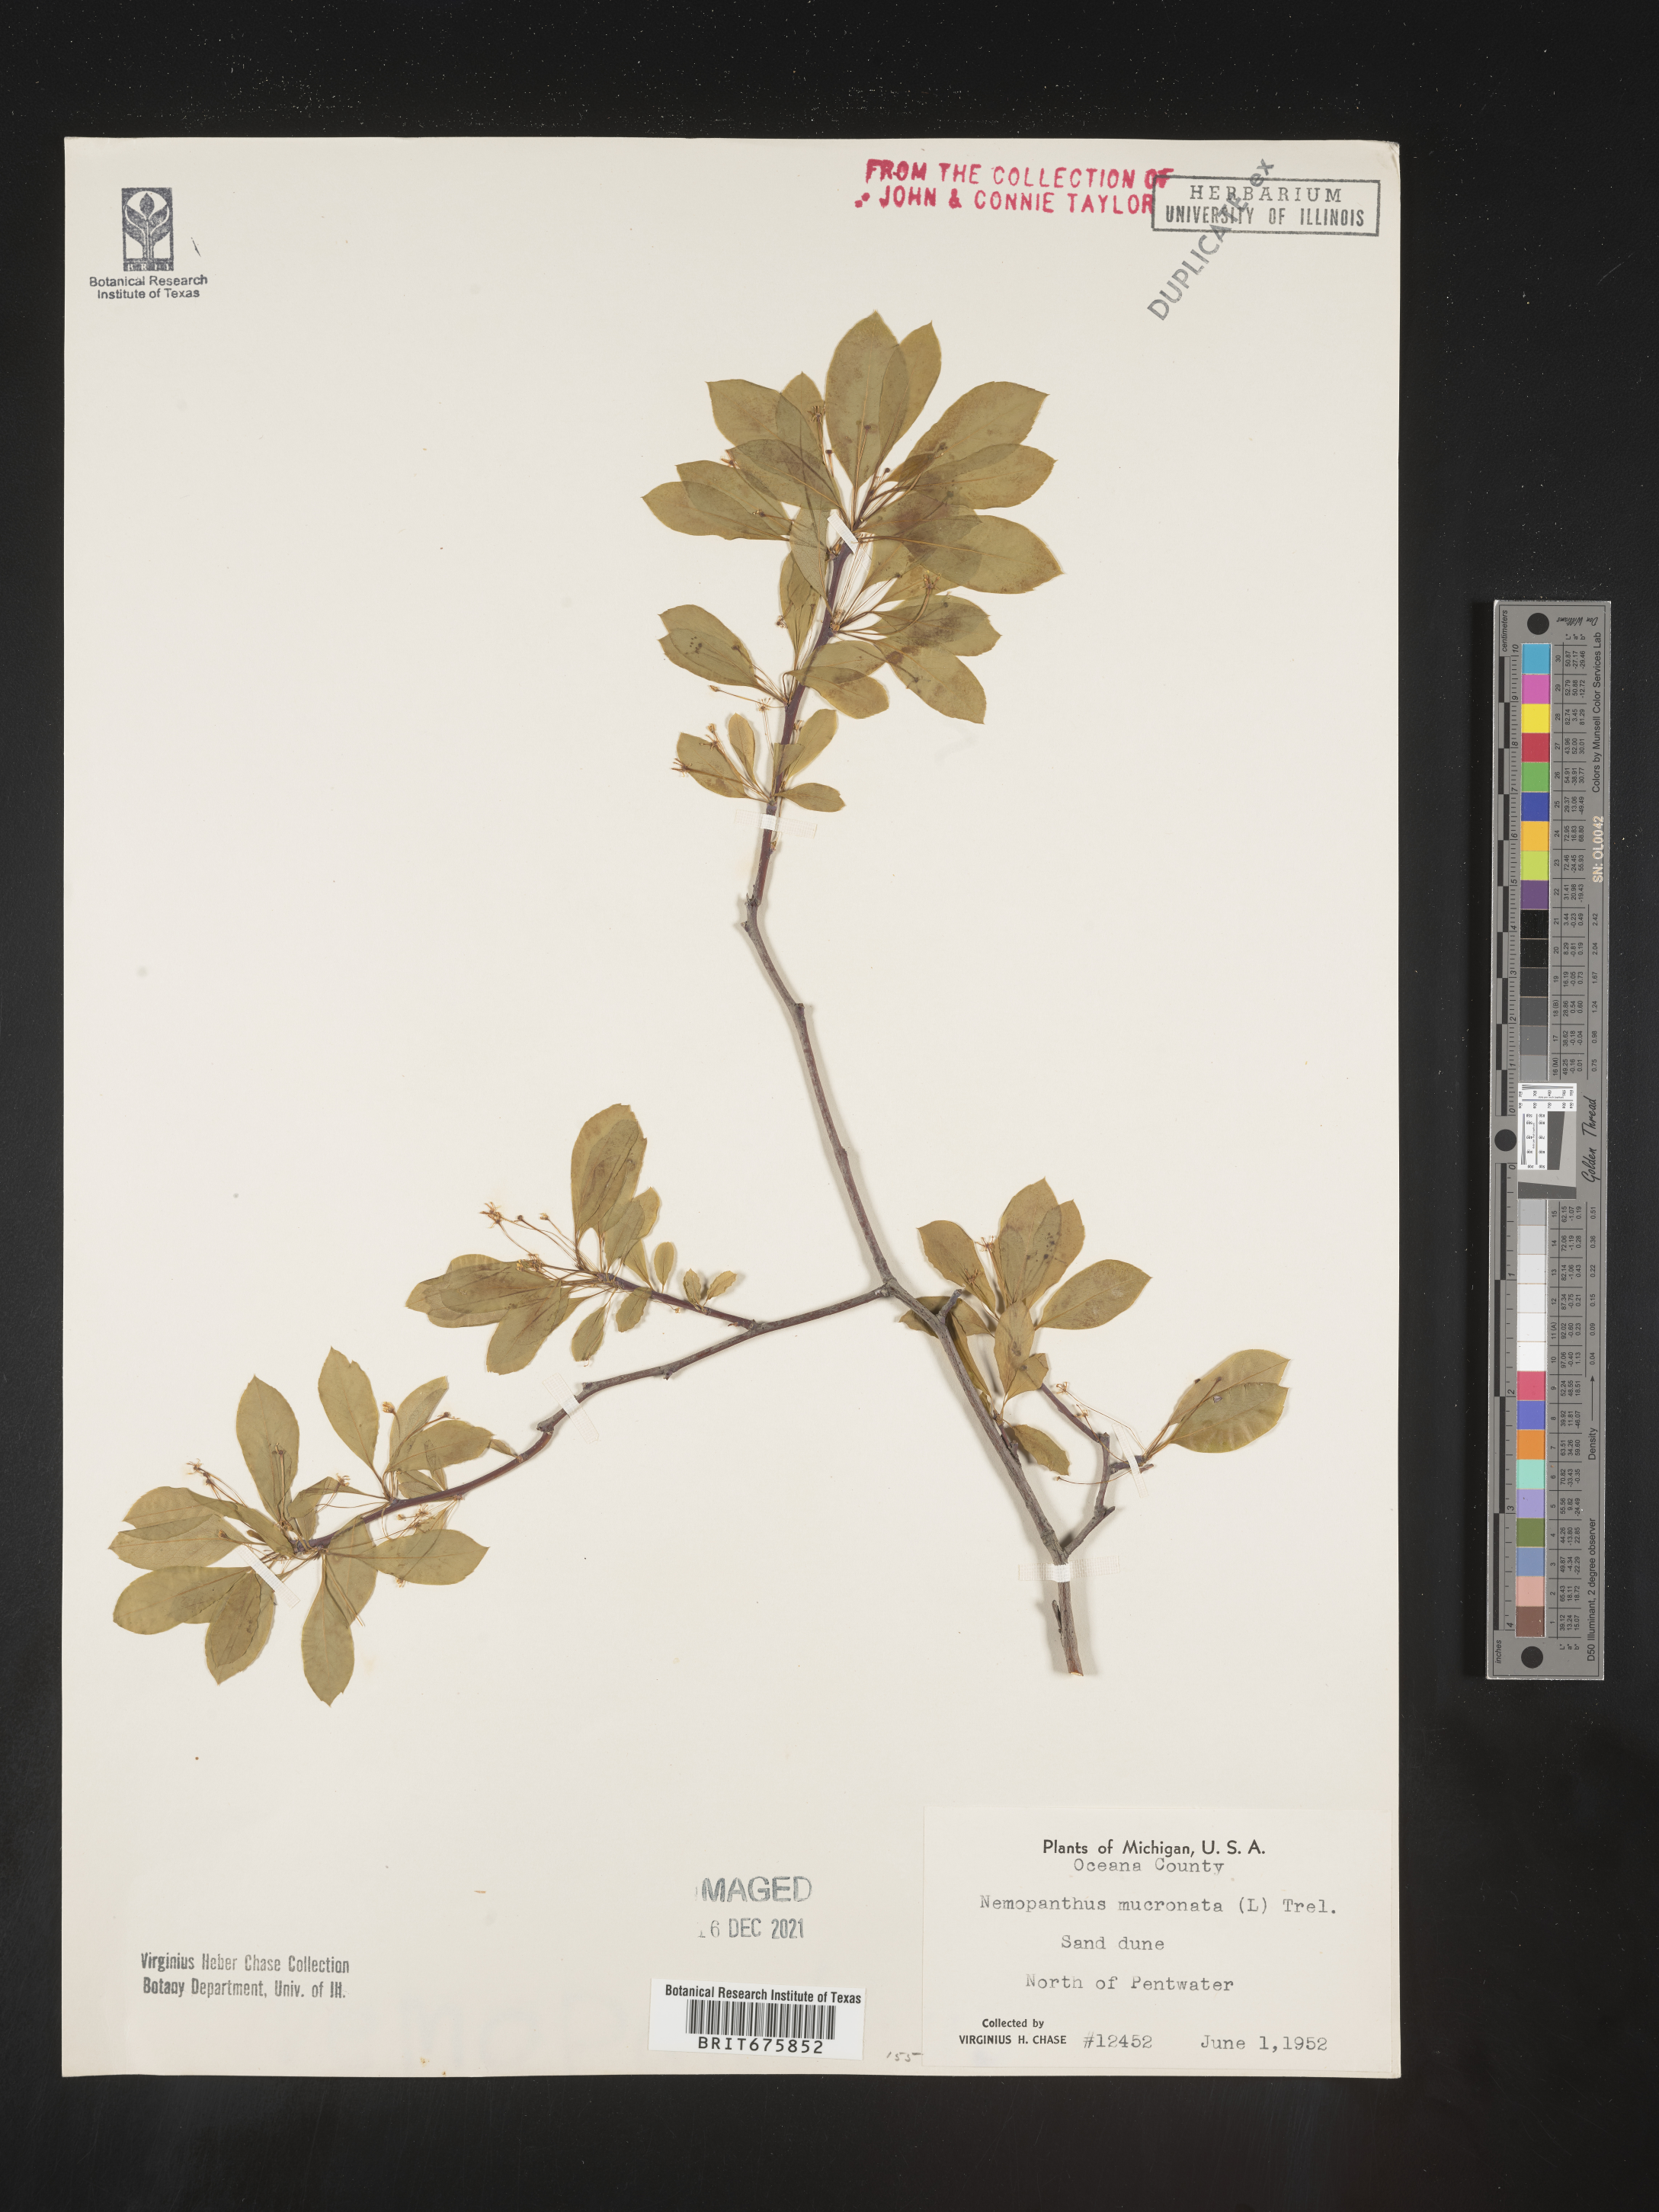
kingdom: Plantae
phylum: Tracheophyta
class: Magnoliopsida
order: Aquifoliales
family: Aquifoliaceae
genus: Ilex
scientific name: Ilex mucronata
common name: Catberry
